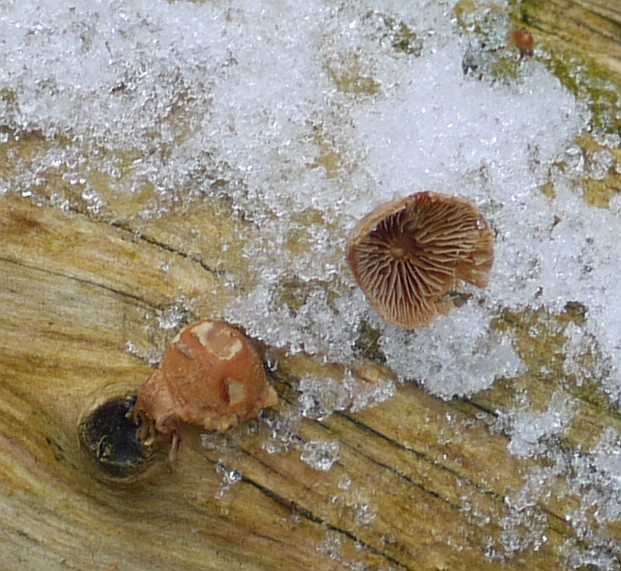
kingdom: Fungi
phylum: Basidiomycota
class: Agaricomycetes
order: Agaricales
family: Strophariaceae
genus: Deconica
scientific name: Deconica horizontalis
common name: ved-stråhat
